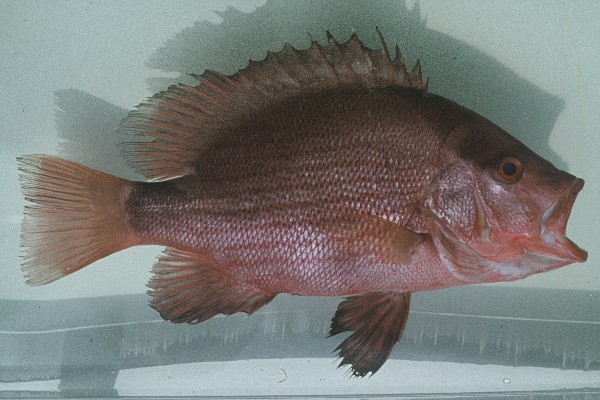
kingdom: Animalia
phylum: Chordata
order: Perciformes
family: Lutjanidae
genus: Lutjanus
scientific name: Lutjanus malabaricus
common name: Malabar snapper
